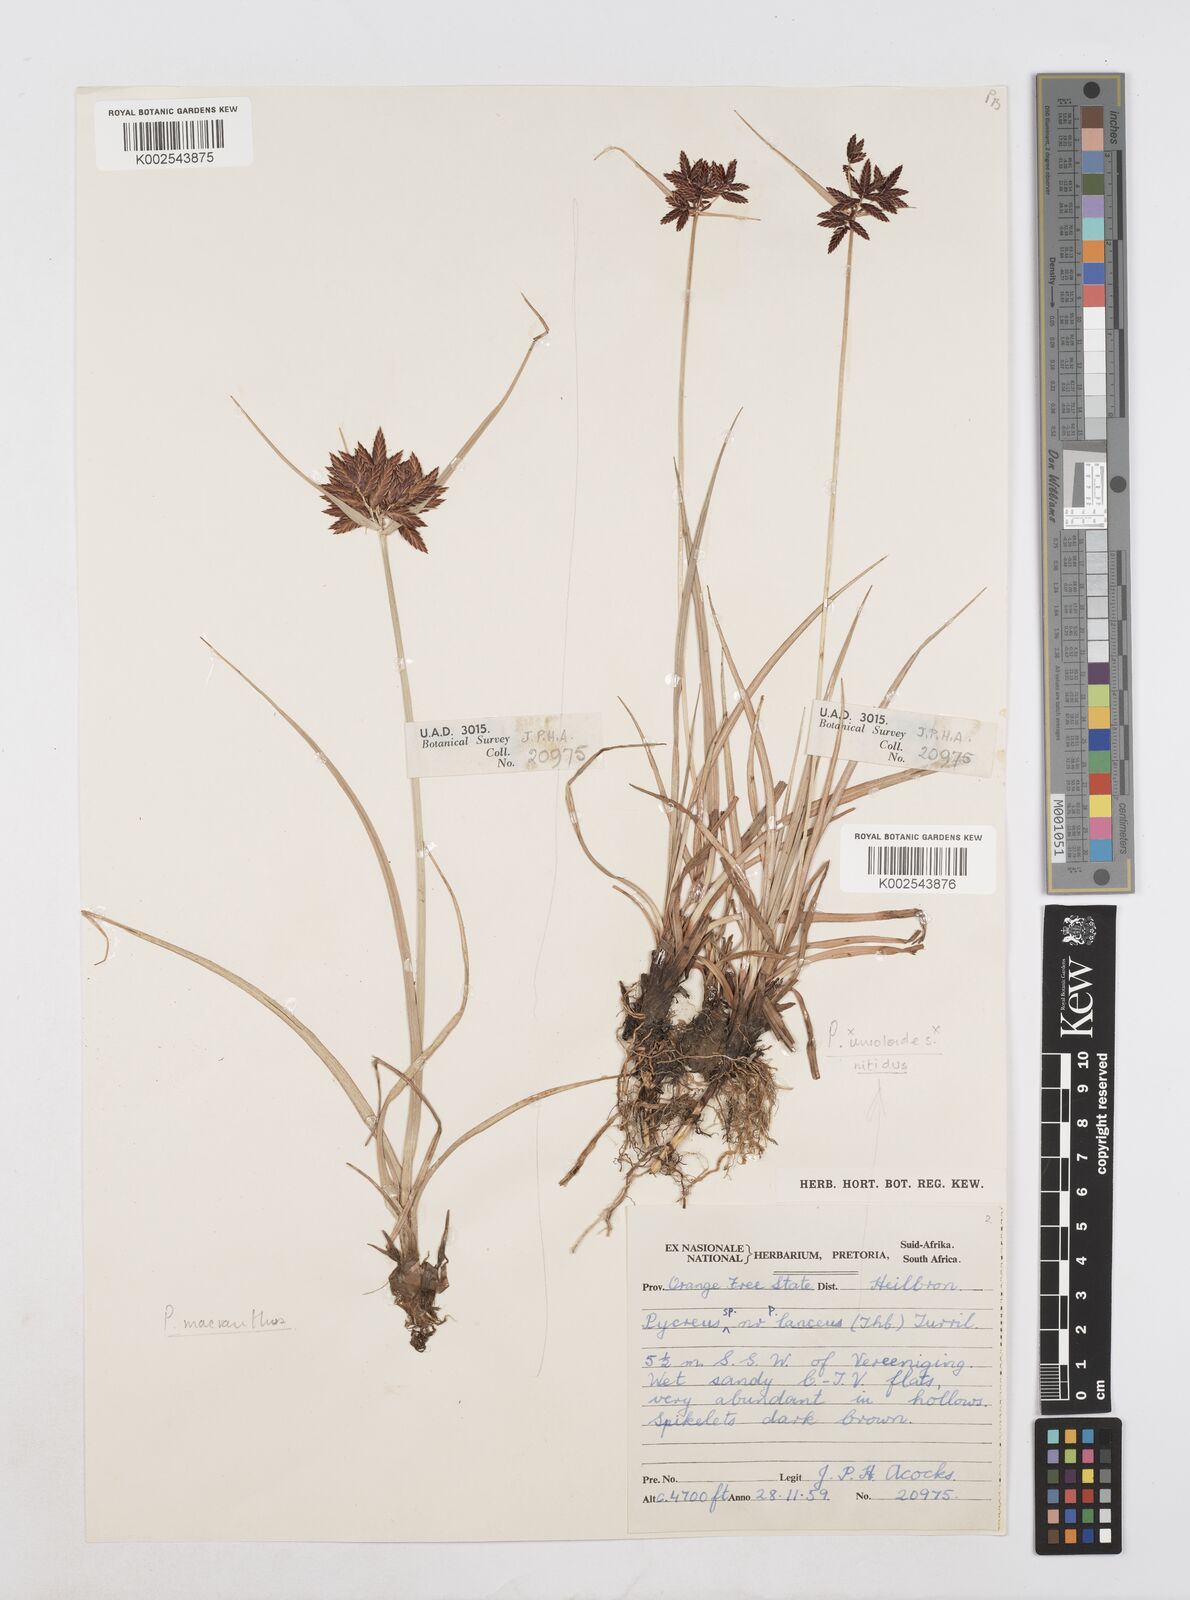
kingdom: Plantae
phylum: Tracheophyta
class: Liliopsida
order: Poales
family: Cyperaceae
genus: Cyperus
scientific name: Cyperus nigricans
